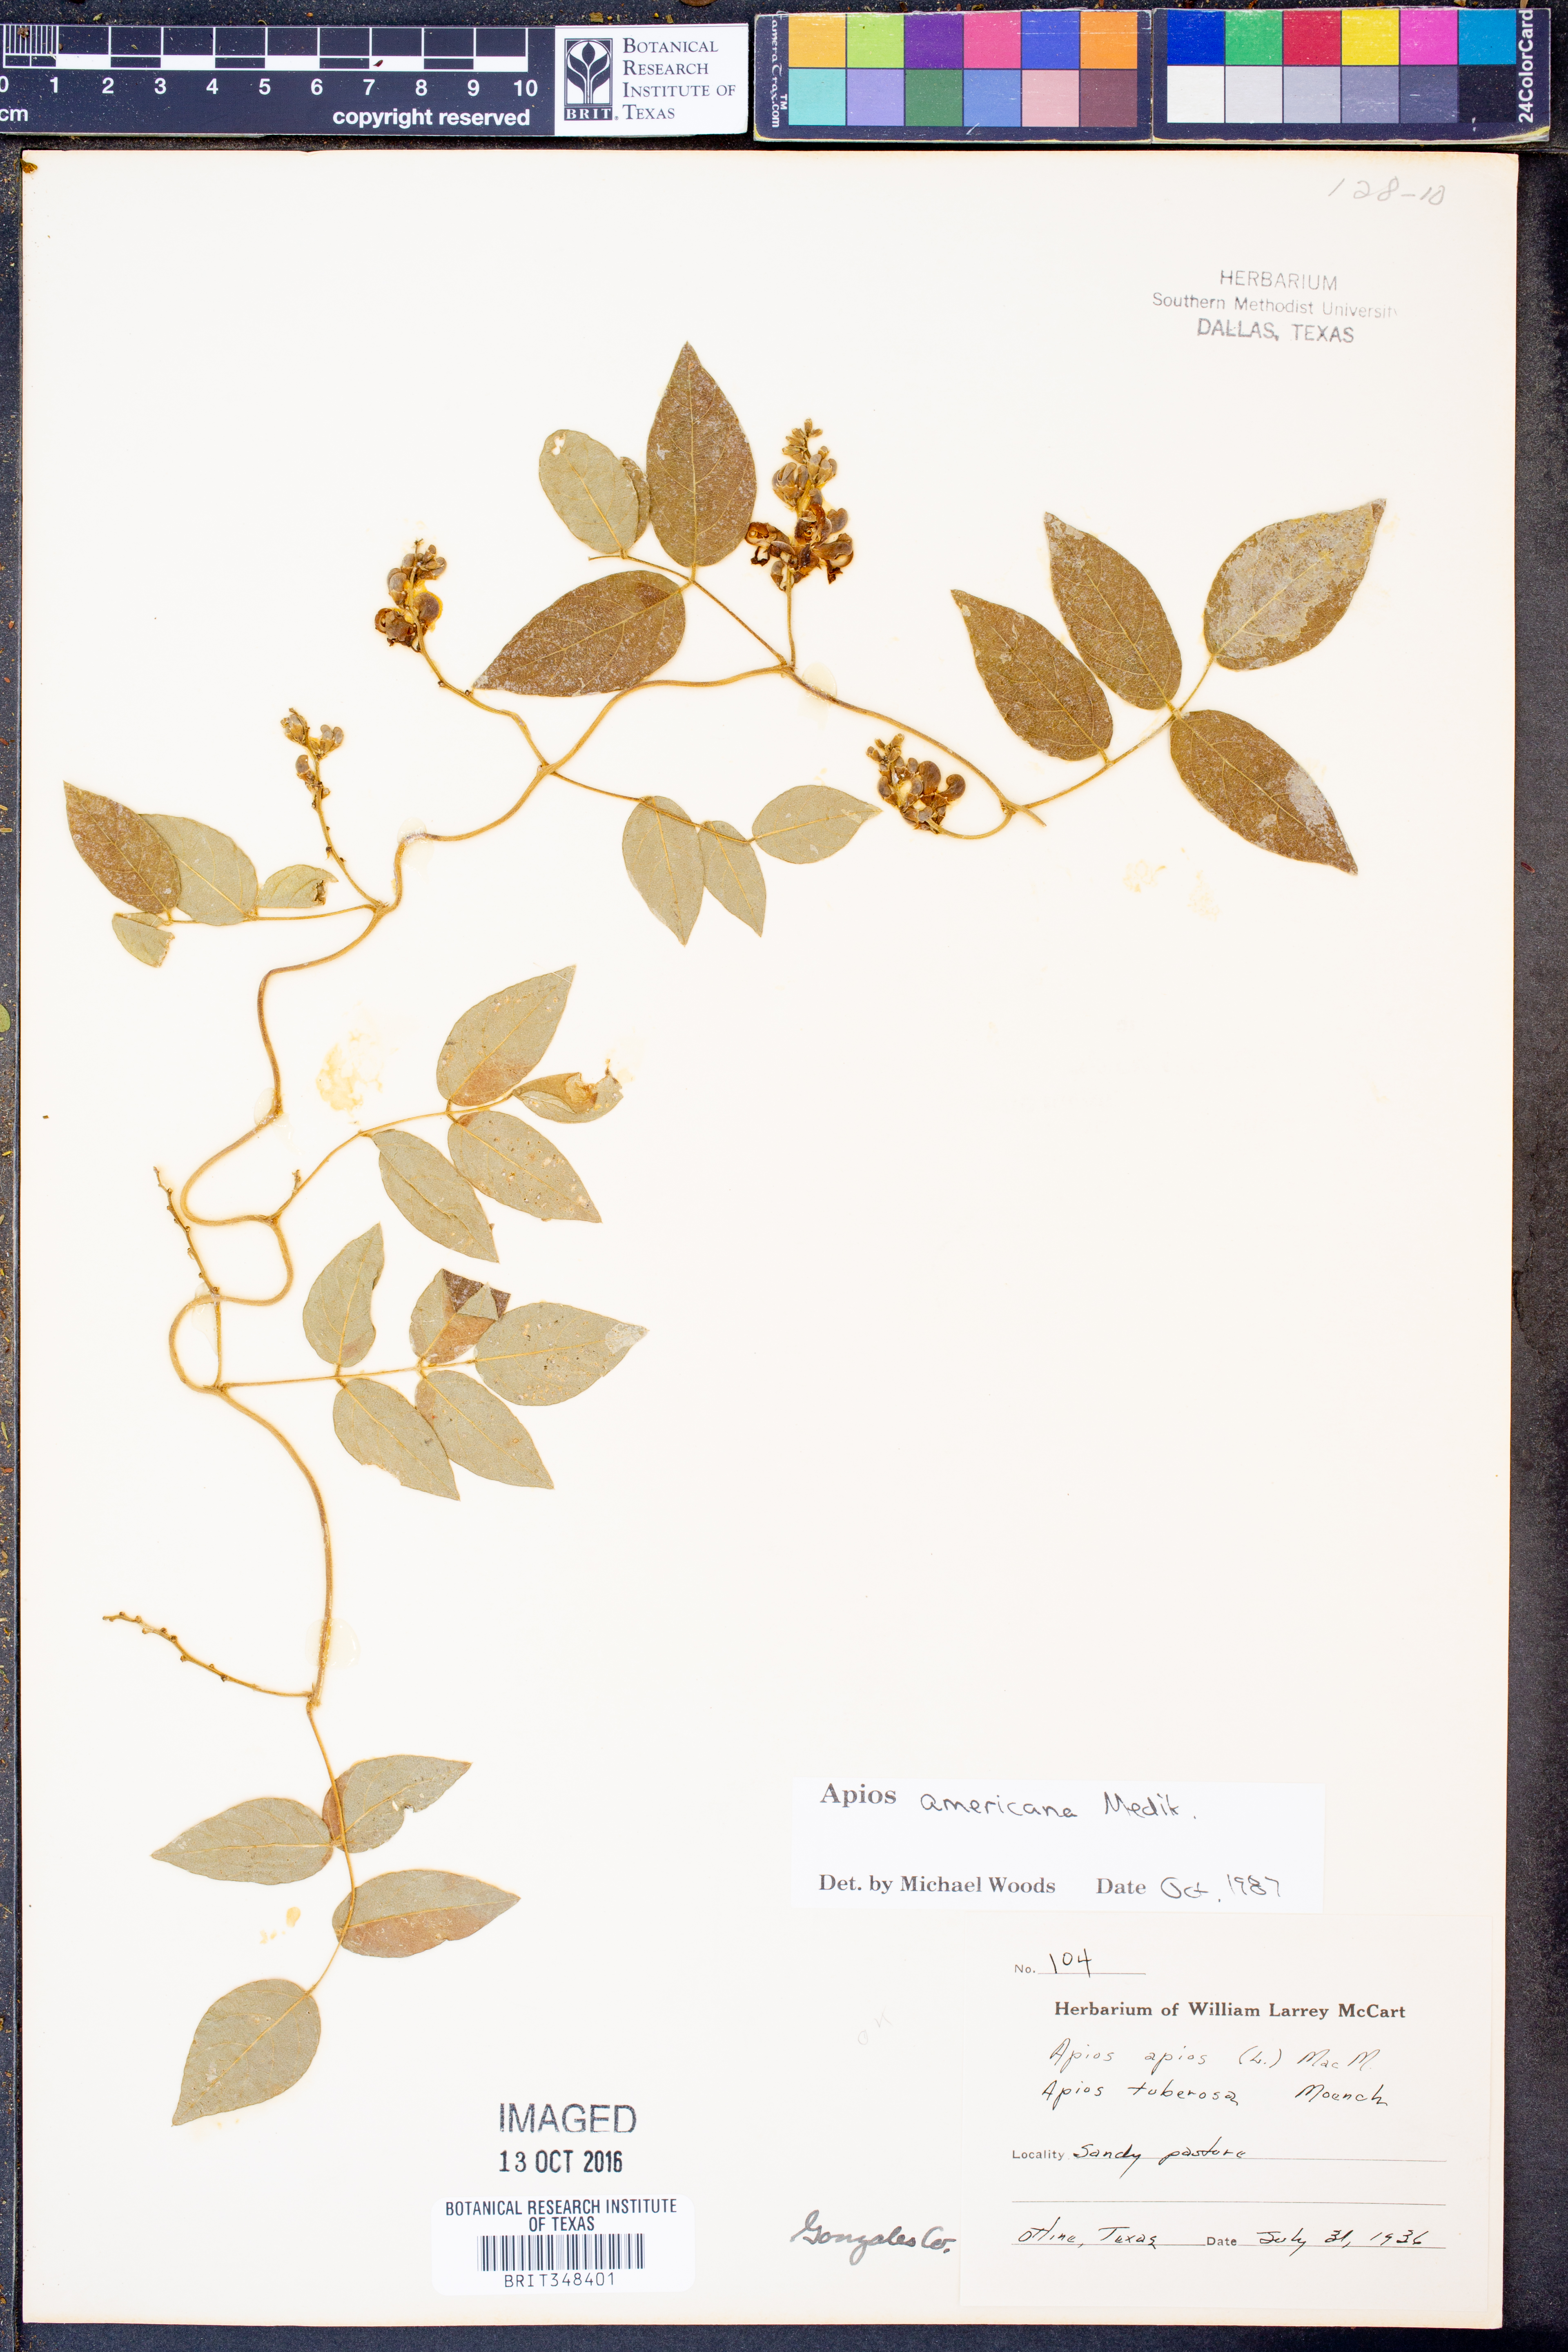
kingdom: Plantae
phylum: Tracheophyta
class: Magnoliopsida
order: Fabales
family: Fabaceae
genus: Apios
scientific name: Apios americana
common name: American potato-bean
